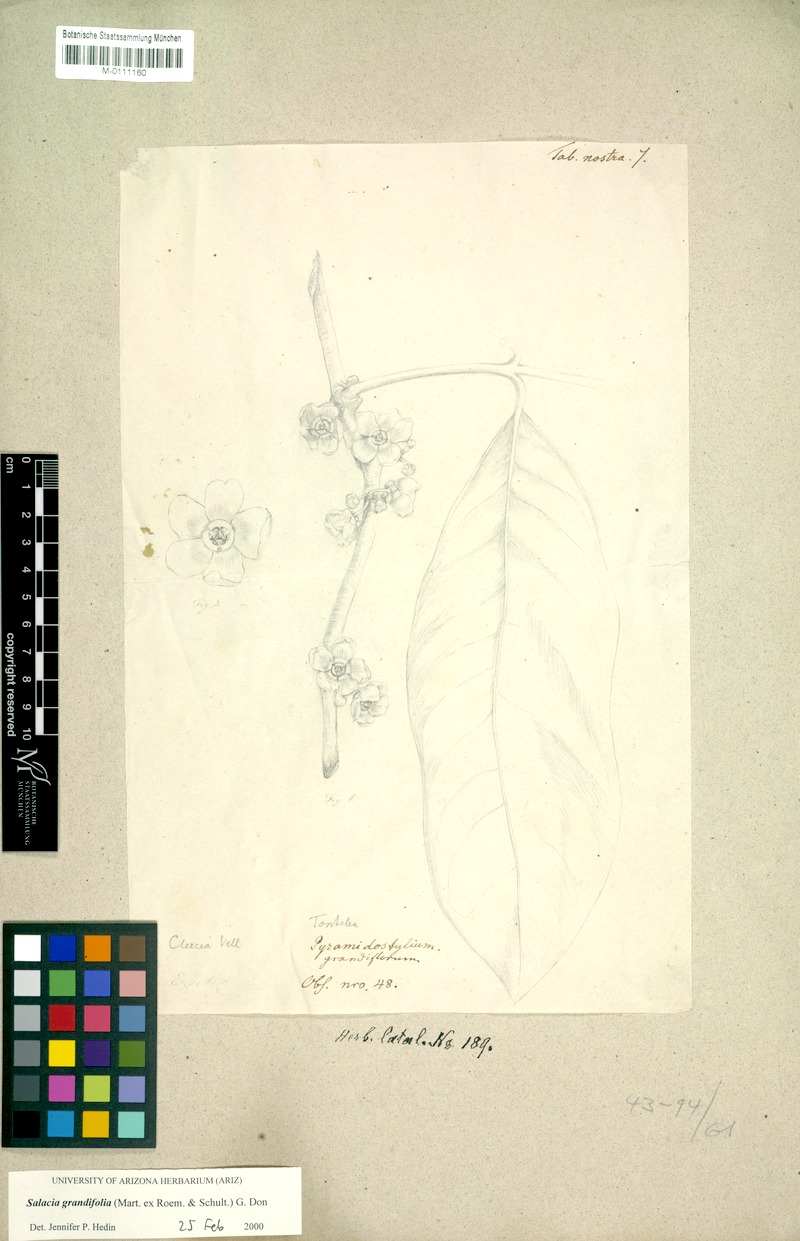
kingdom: Plantae
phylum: Tracheophyta
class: Magnoliopsida
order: Celastrales
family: Celastraceae
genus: Salacia
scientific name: Salacia grandifolia
